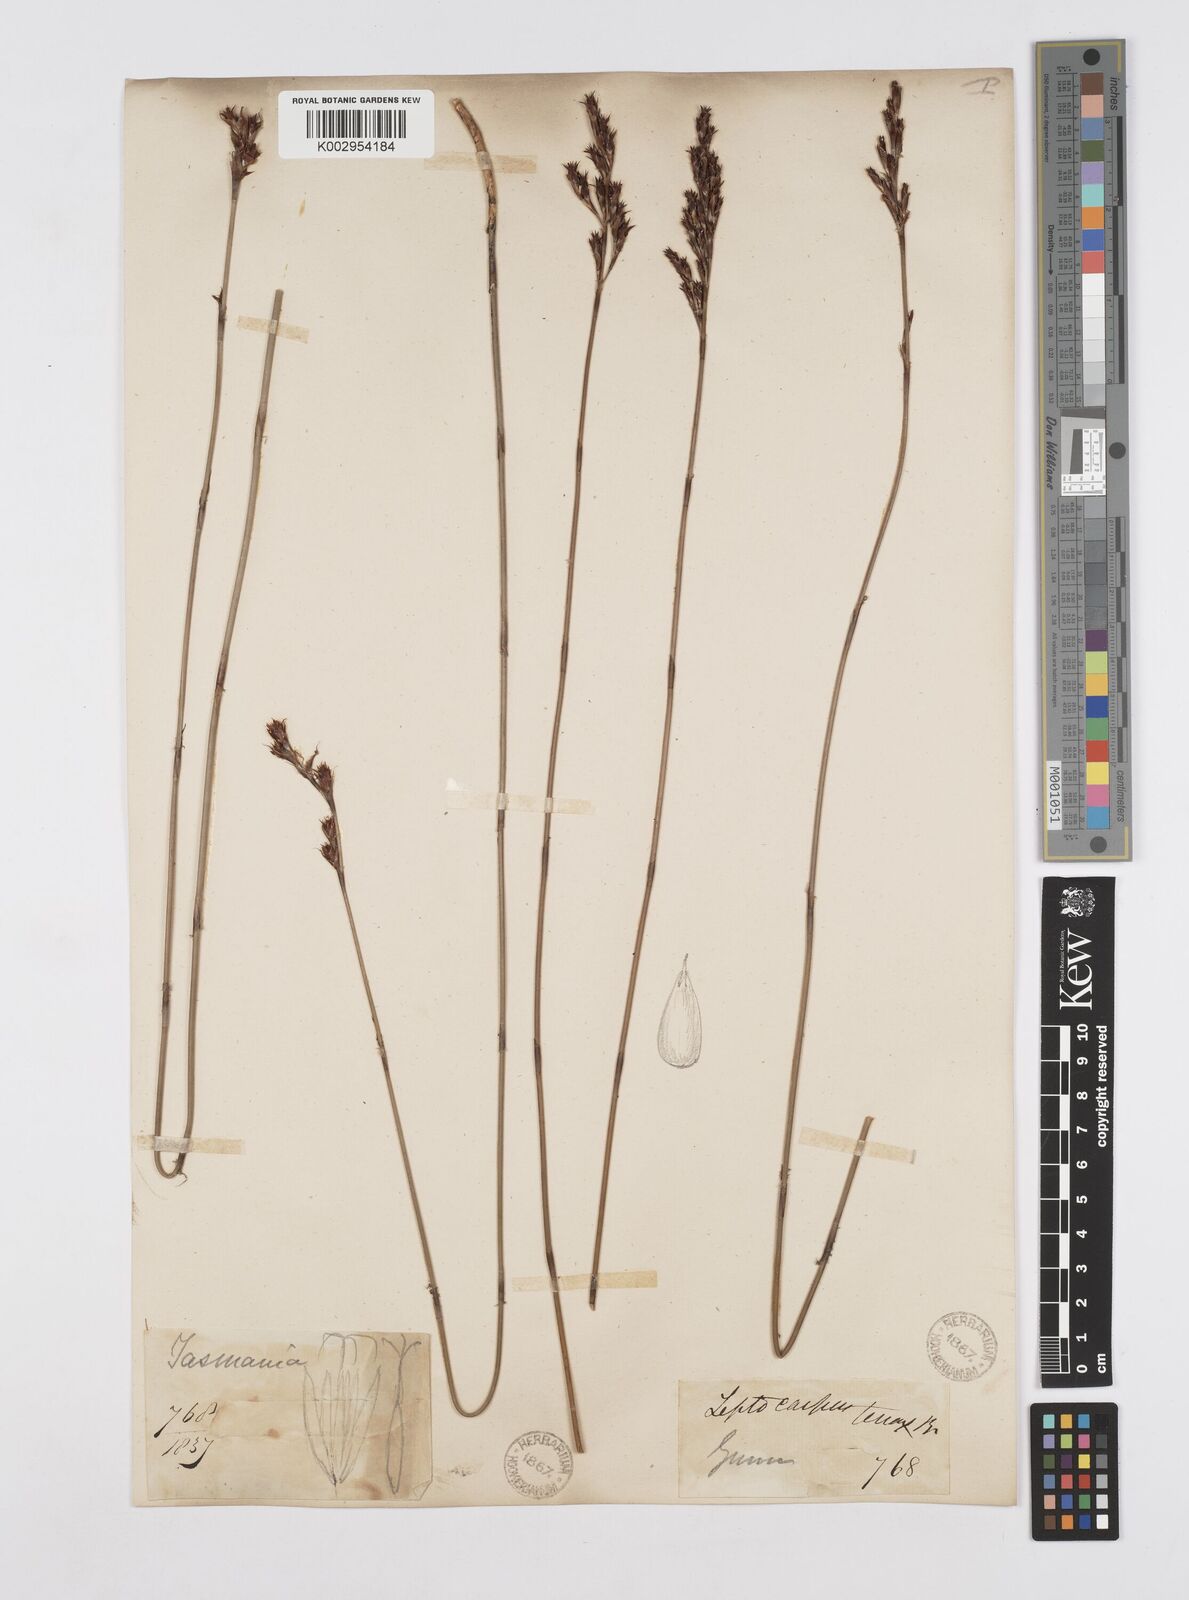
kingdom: Plantae
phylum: Tracheophyta
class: Liliopsida
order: Poales
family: Restionaceae
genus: Leptocarpus
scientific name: Leptocarpus tenax
